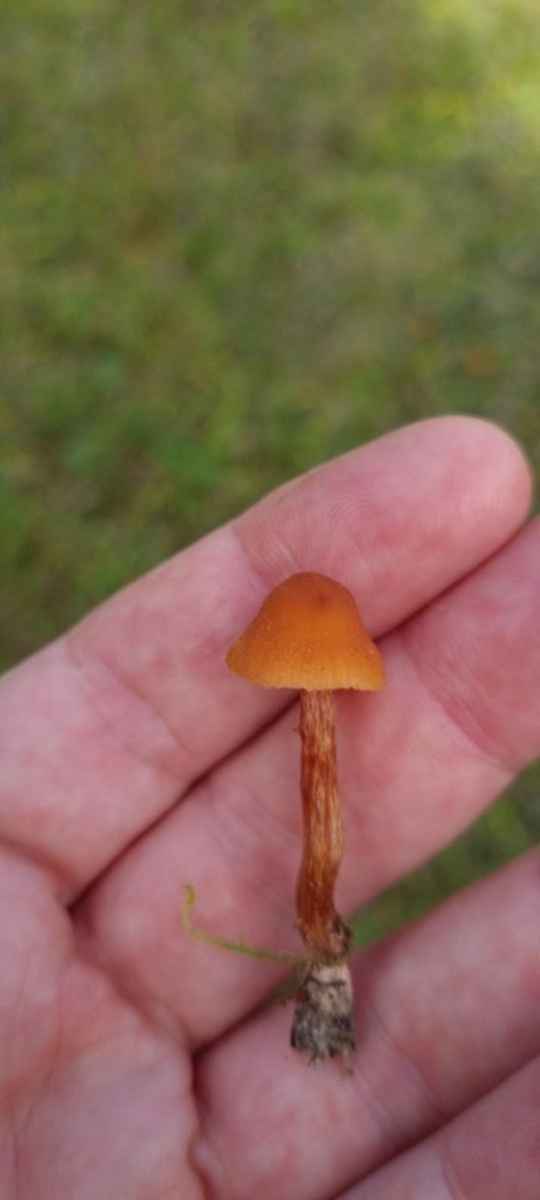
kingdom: Fungi
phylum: Basidiomycota
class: Agaricomycetes
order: Agaricales
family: Hydnangiaceae
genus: Laccaria
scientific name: Laccaria
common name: ametysthat
